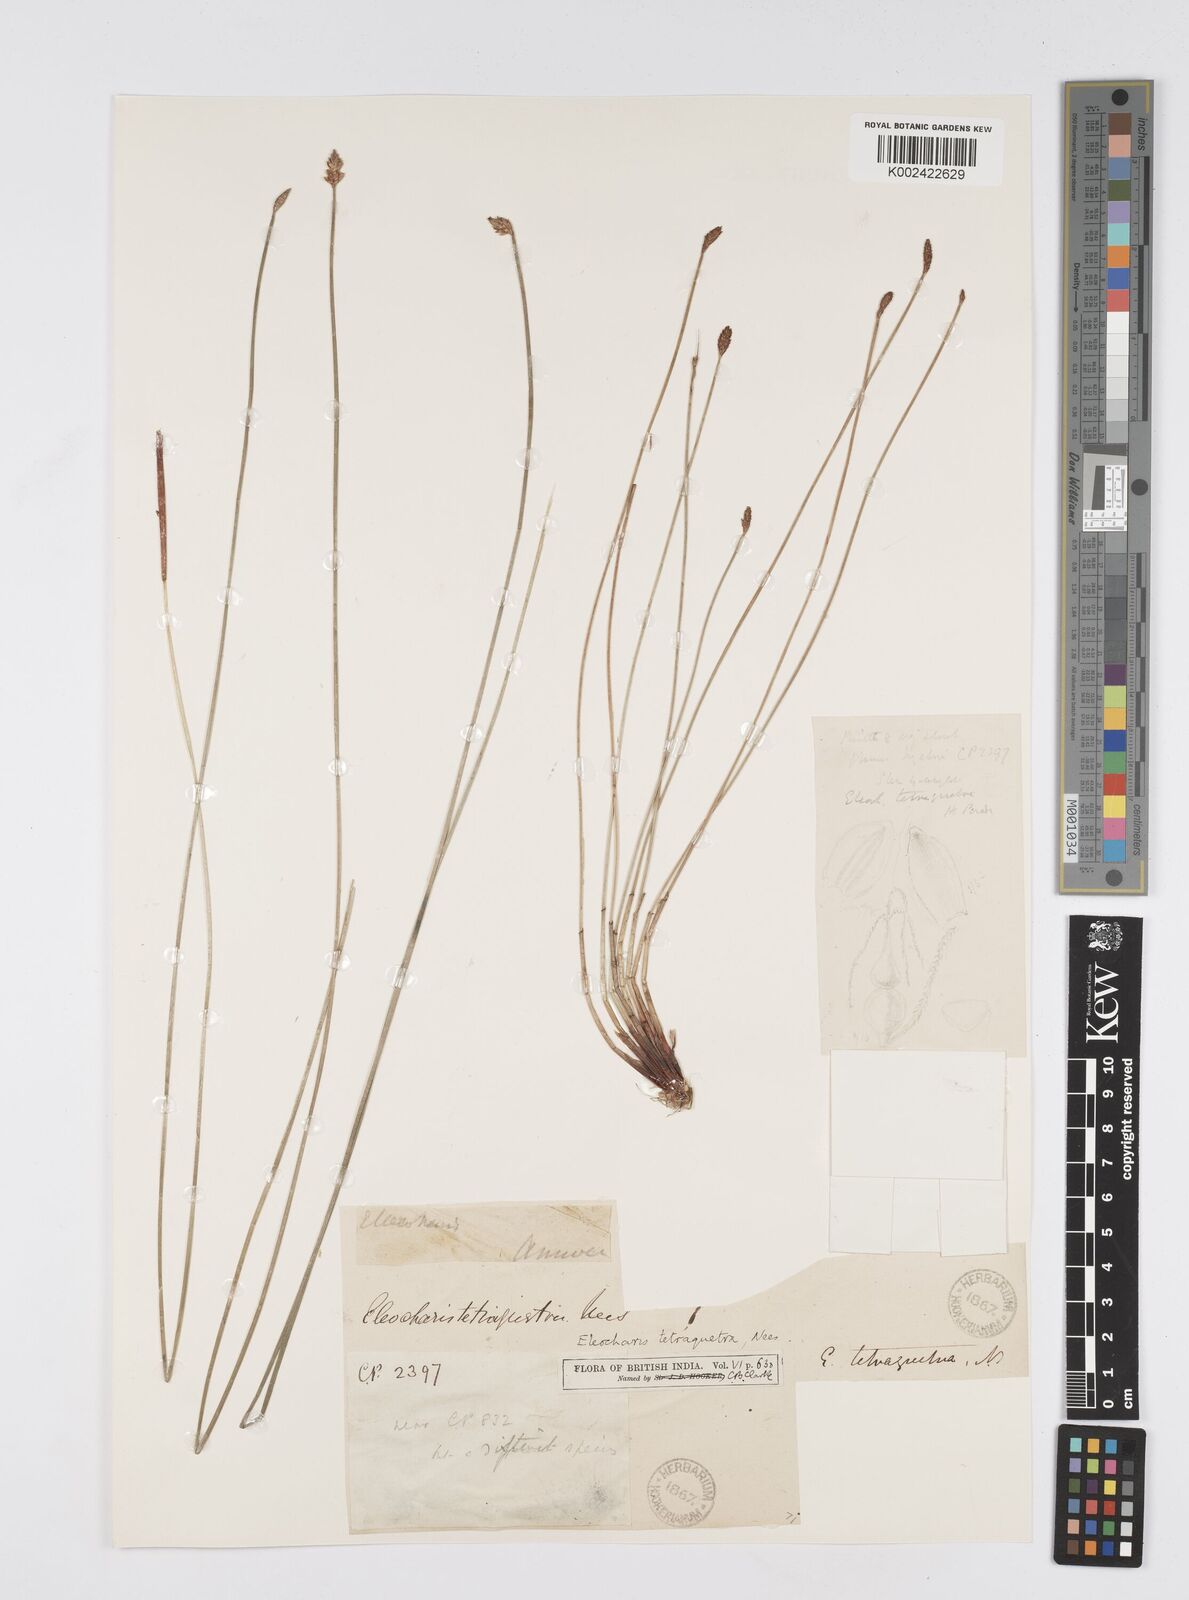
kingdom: Plantae
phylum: Tracheophyta
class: Liliopsida
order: Poales
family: Cyperaceae
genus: Eleocharis
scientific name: Eleocharis tetraquetra
